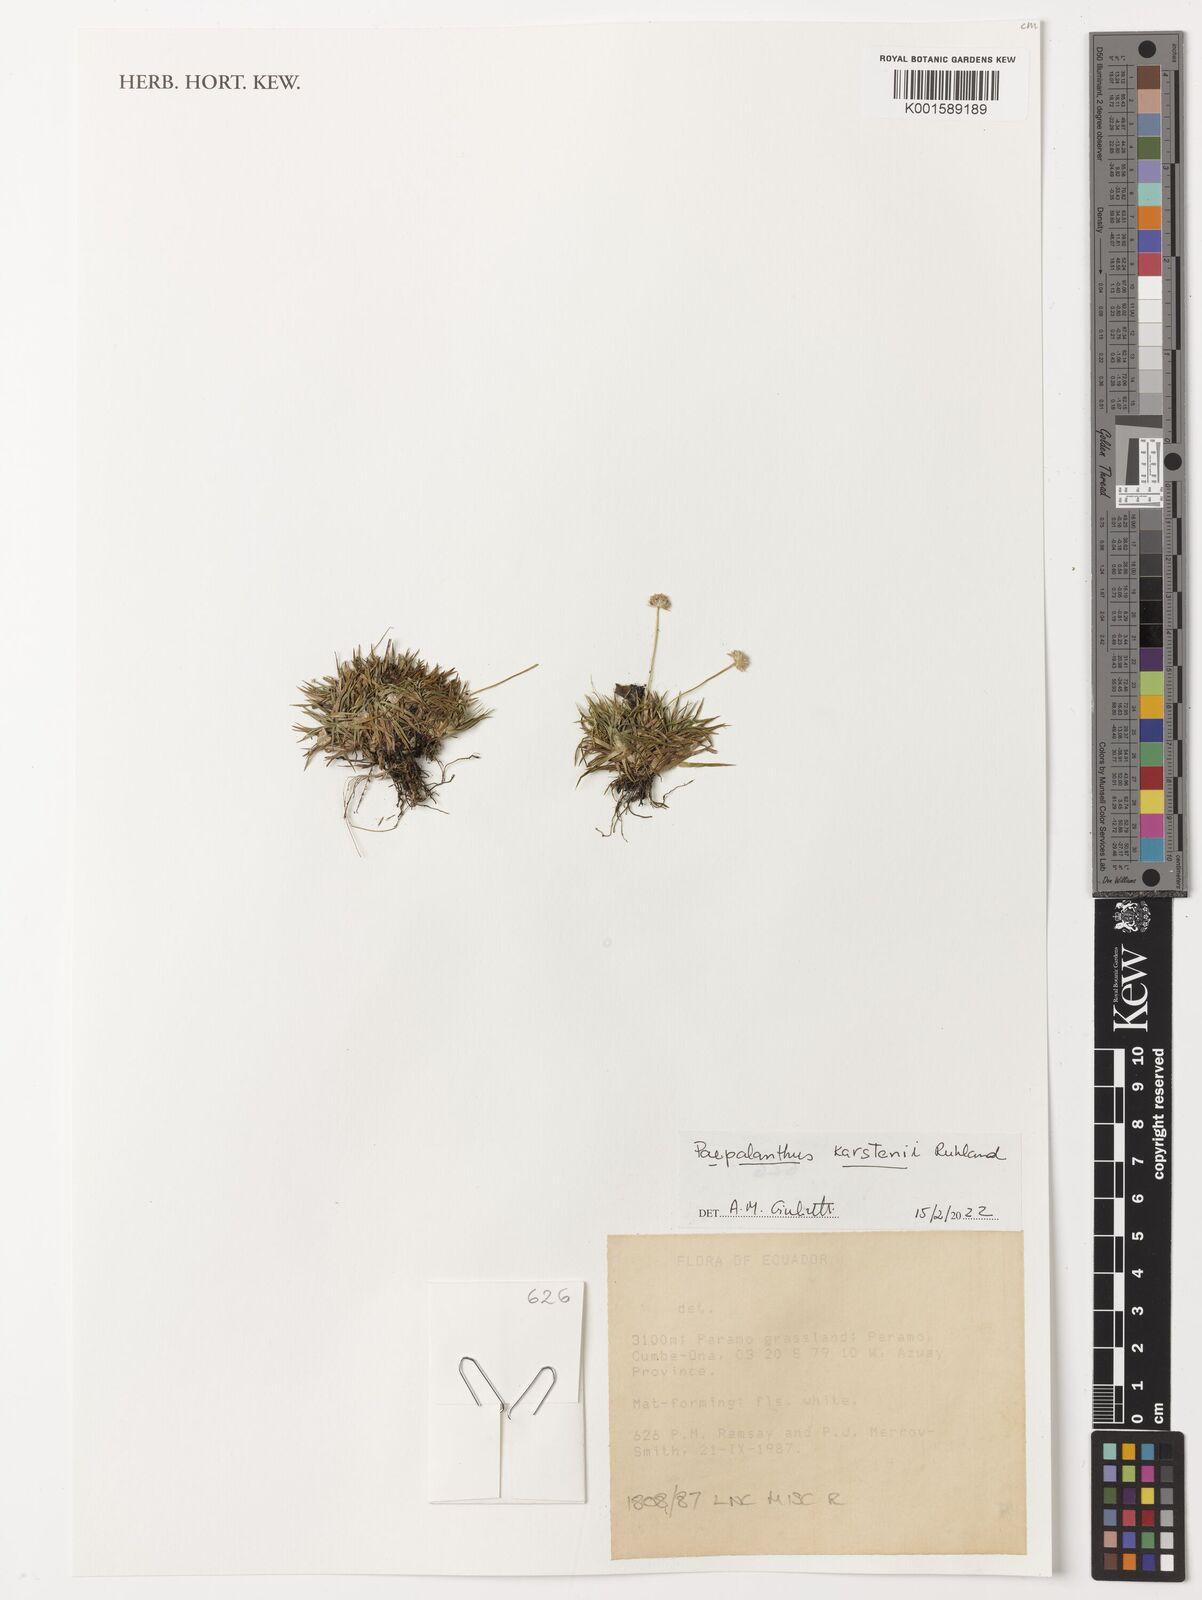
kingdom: Plantae
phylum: Tracheophyta
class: Liliopsida
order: Poales
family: Eriocaulaceae
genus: Paepalanthus
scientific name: Paepalanthus karstenii
